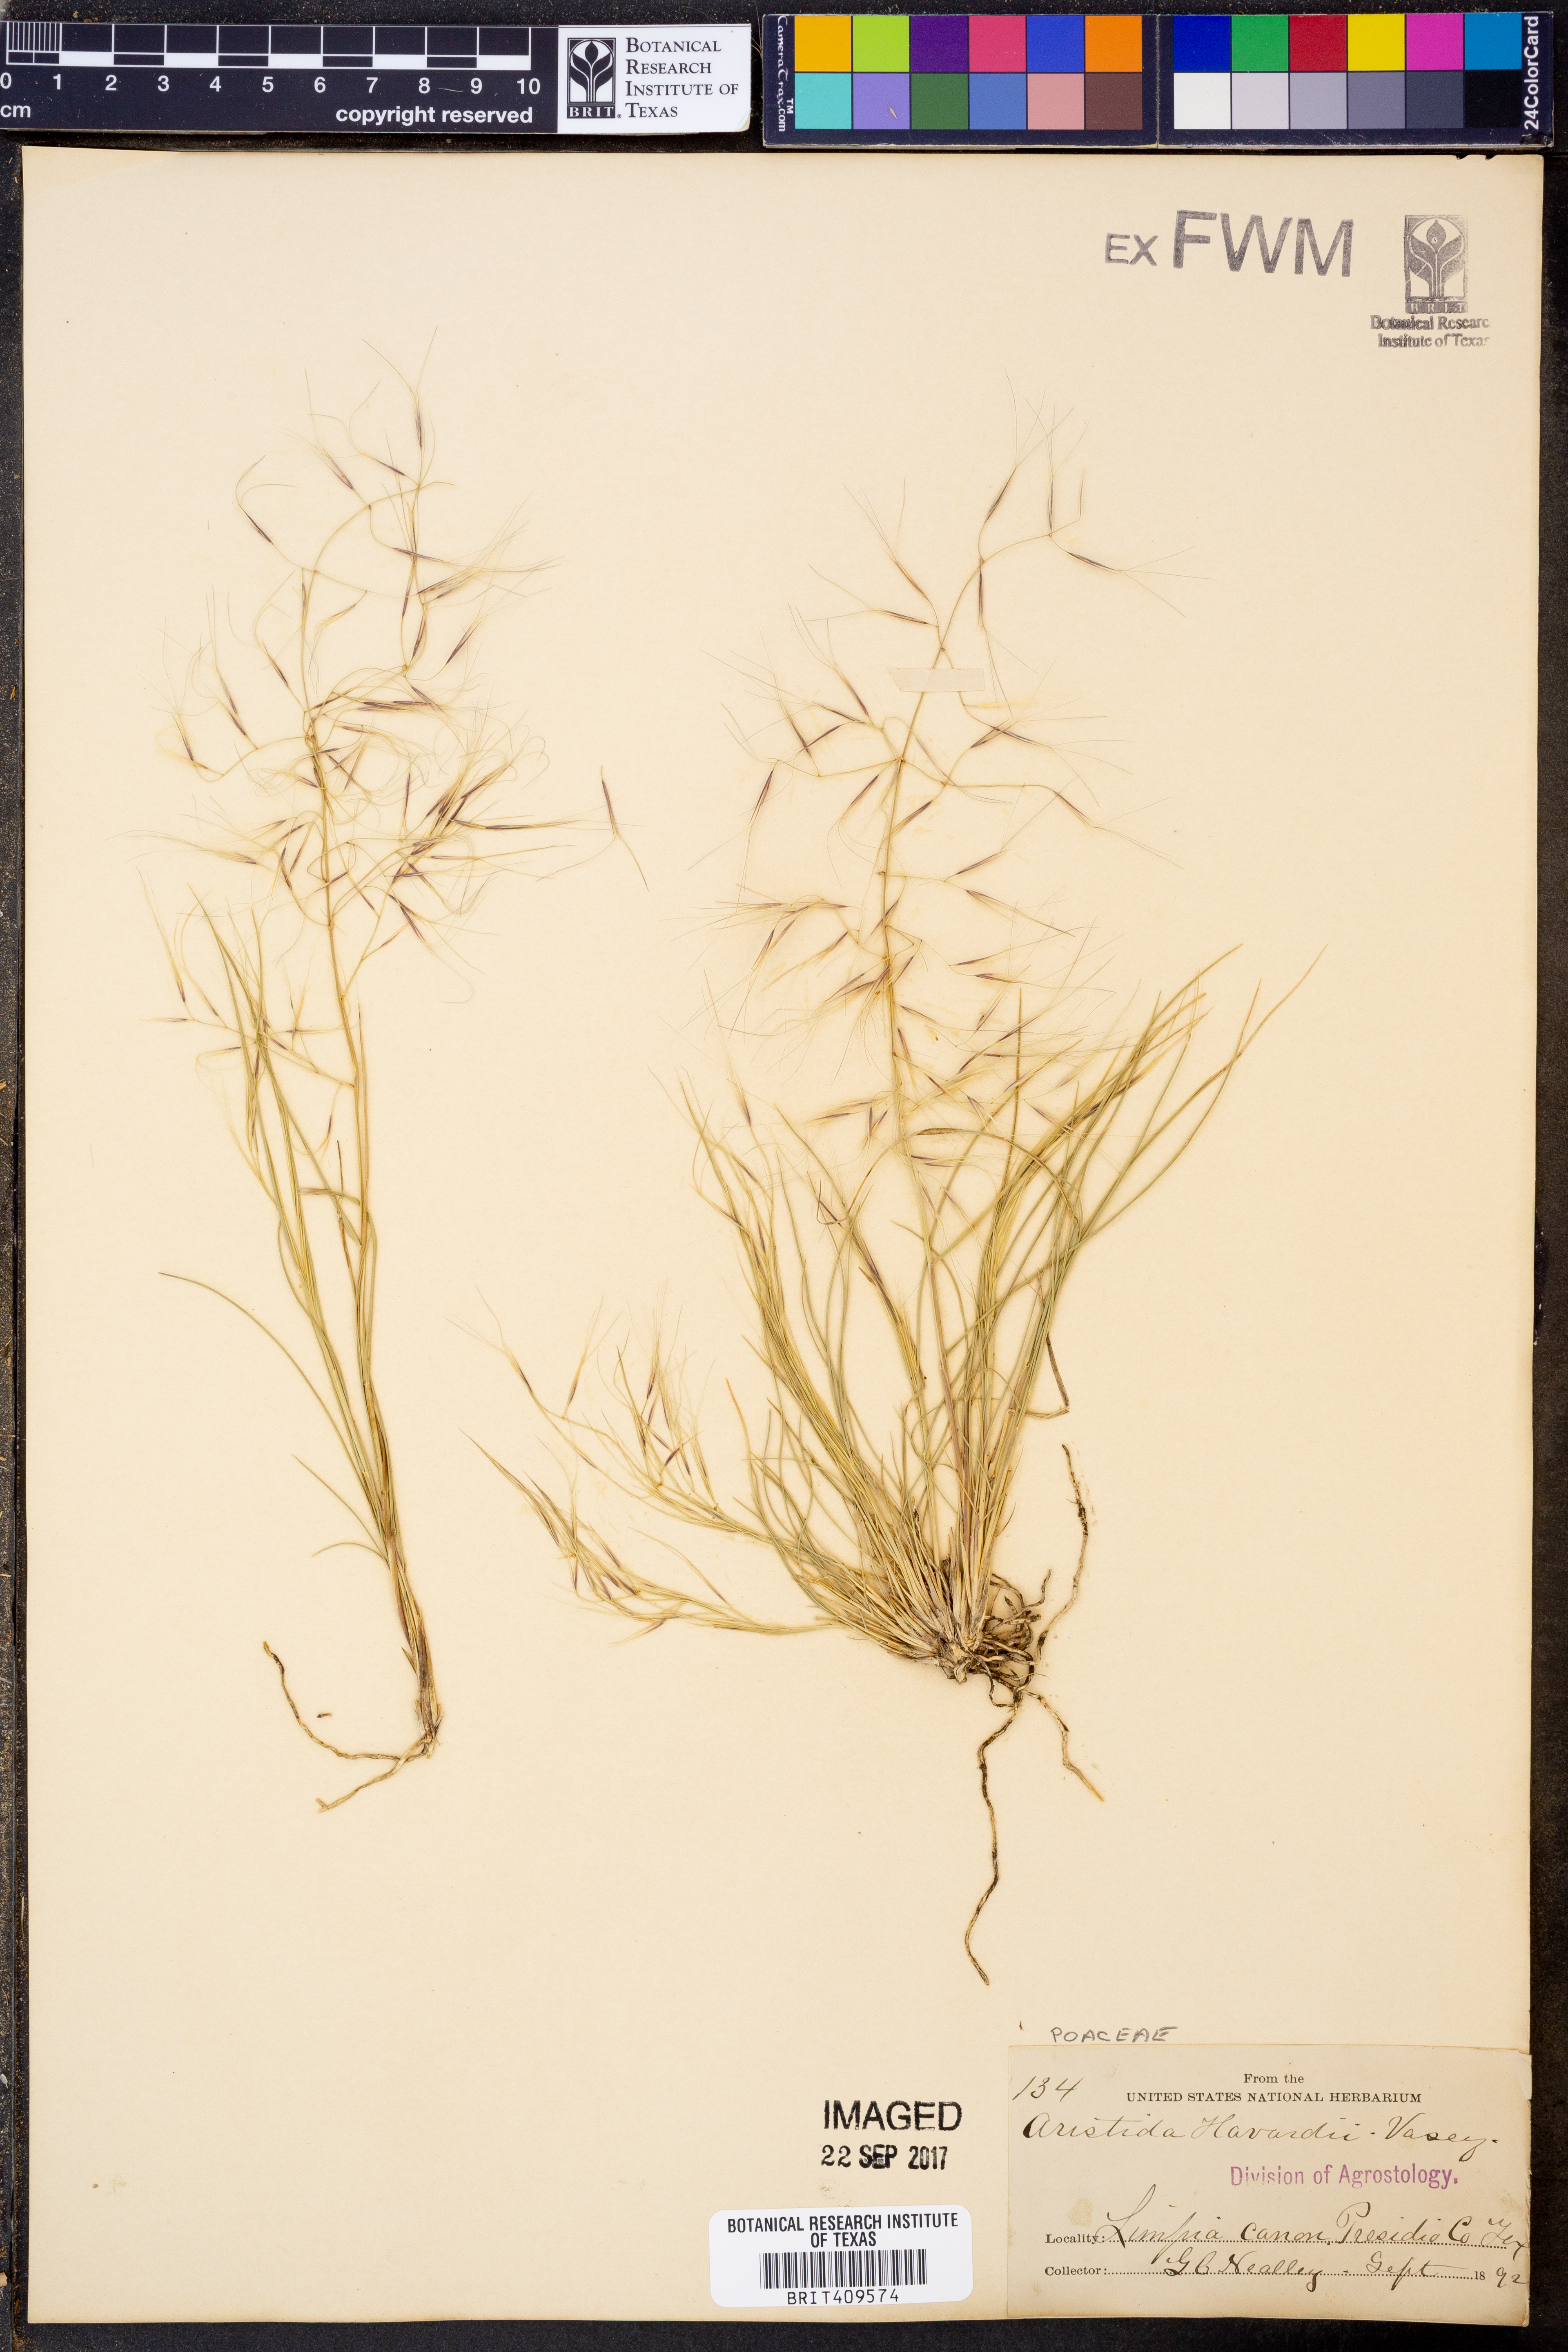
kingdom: Plantae
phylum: Tracheophyta
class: Liliopsida
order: Poales
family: Poaceae
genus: Aristida
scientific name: Aristida havardii
